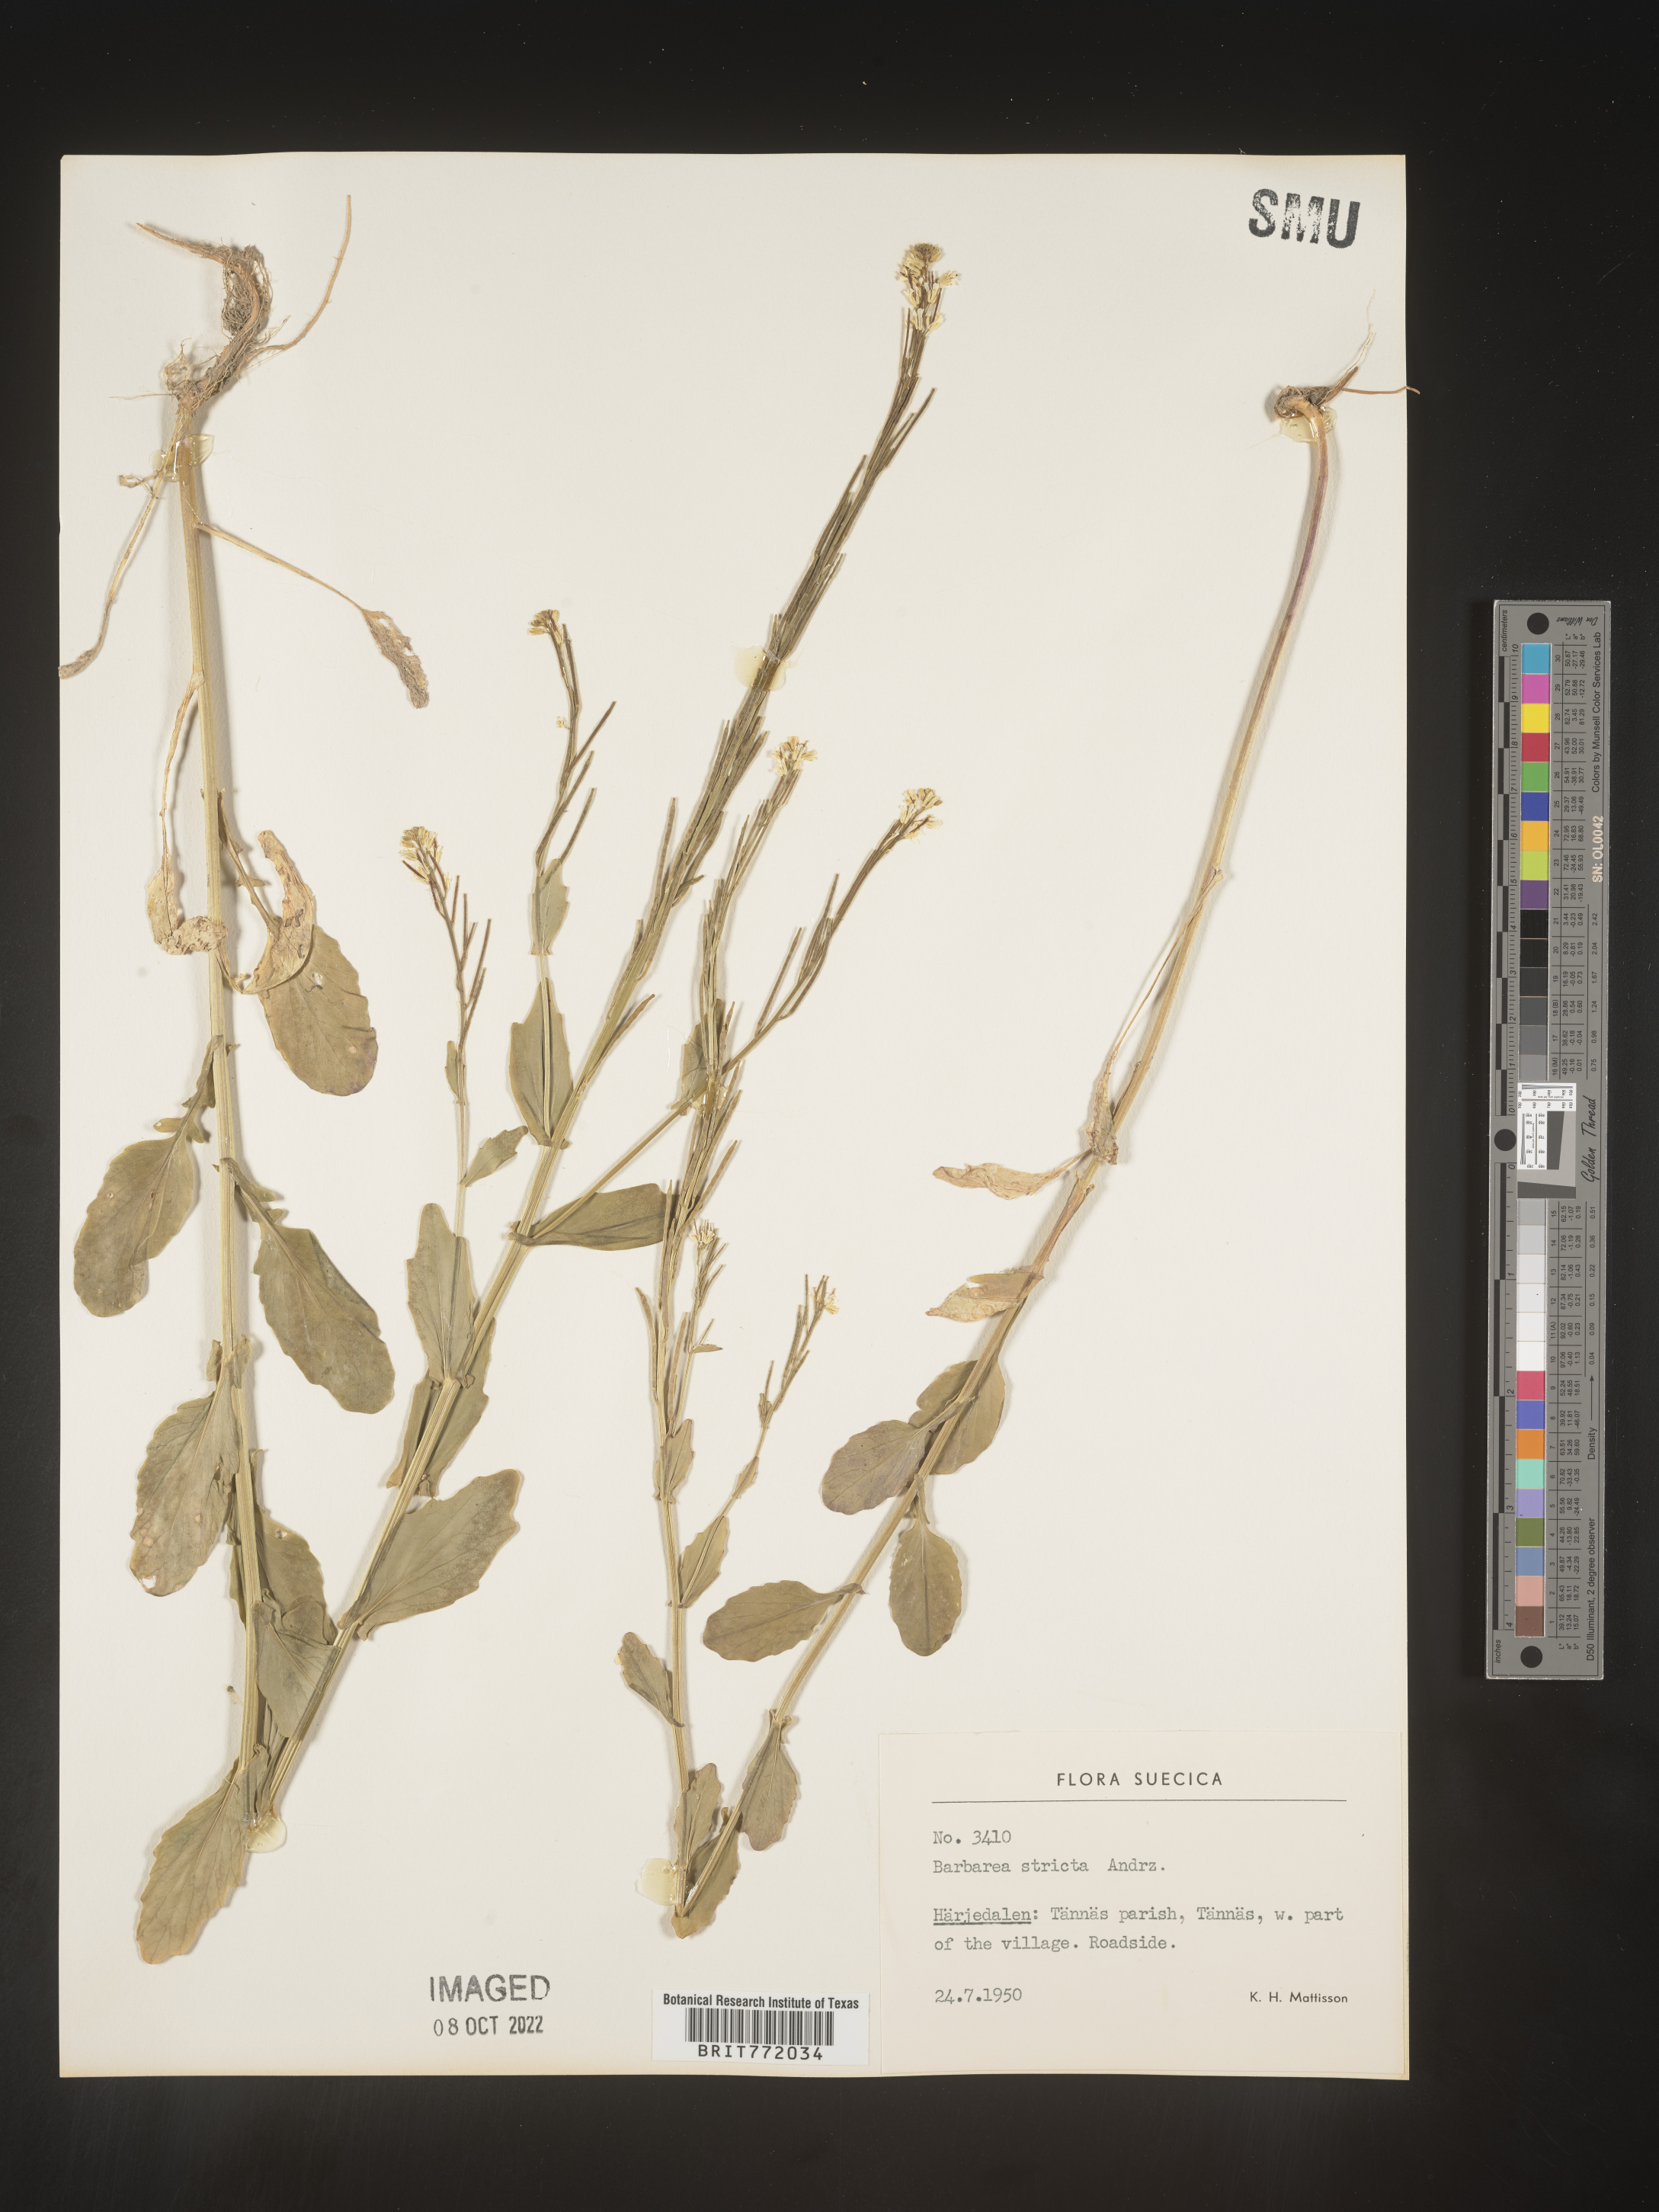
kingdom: Plantae
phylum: Tracheophyta
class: Magnoliopsida
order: Brassicales
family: Brassicaceae
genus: Barbarea
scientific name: Barbarea
